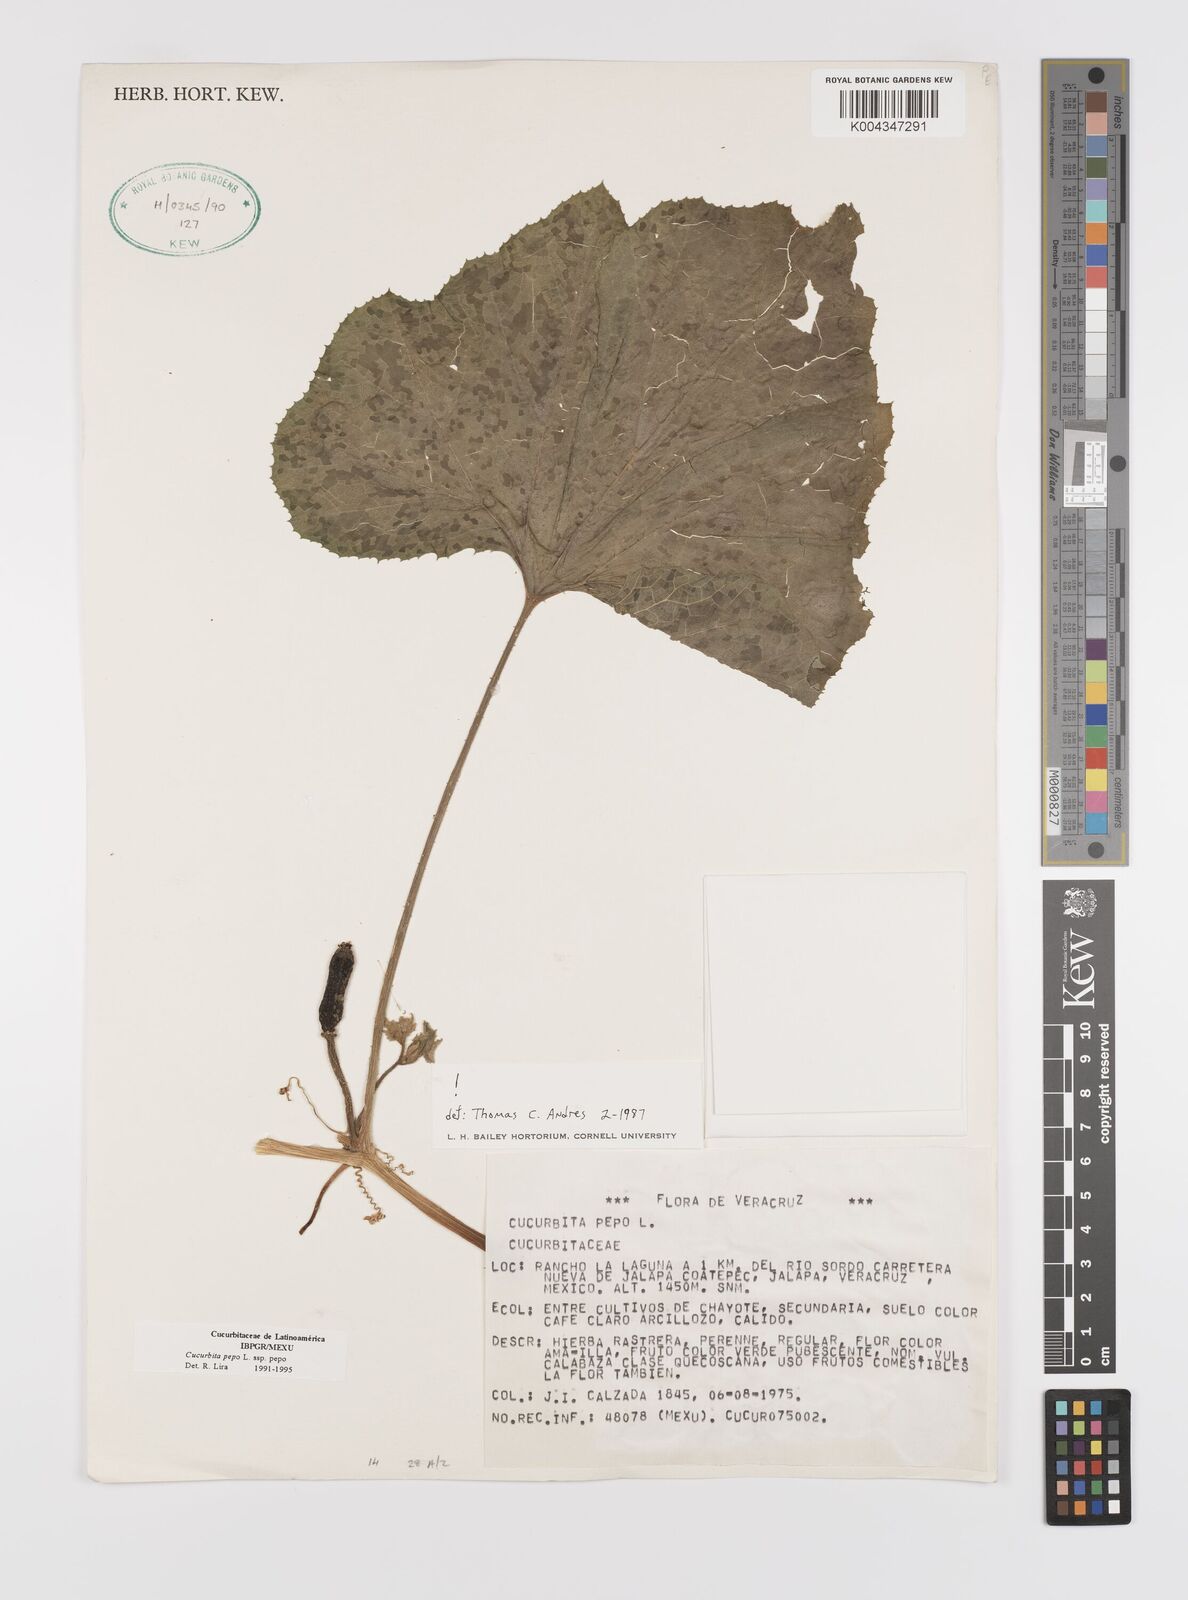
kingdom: Plantae
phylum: Tracheophyta
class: Magnoliopsida
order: Cucurbitales
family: Cucurbitaceae
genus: Cucurbita
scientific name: Cucurbita pepo
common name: Marrow
